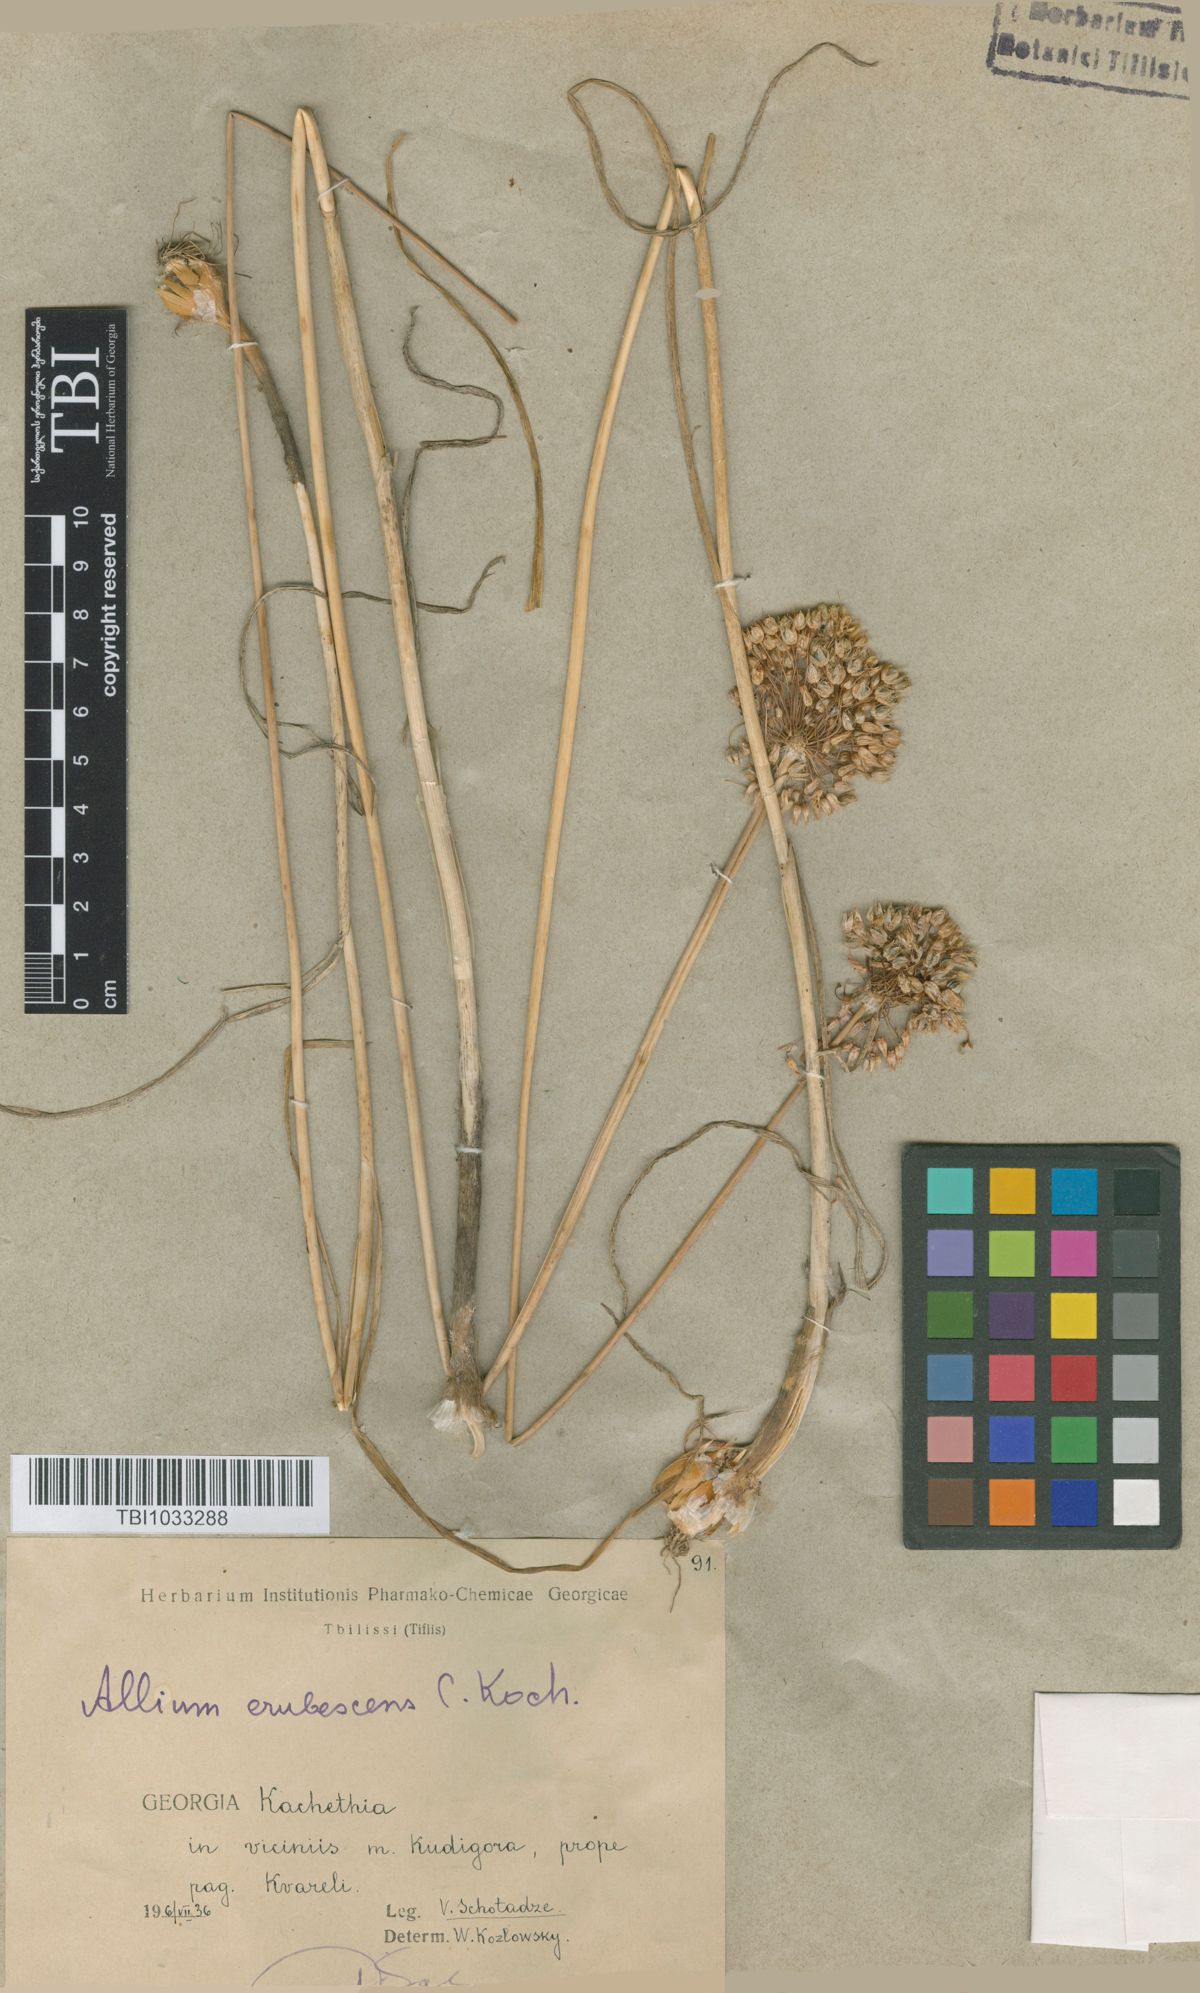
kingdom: Plantae
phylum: Tracheophyta
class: Liliopsida
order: Asparagales
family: Amaryllidaceae
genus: Allium
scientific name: Allium erubescens
